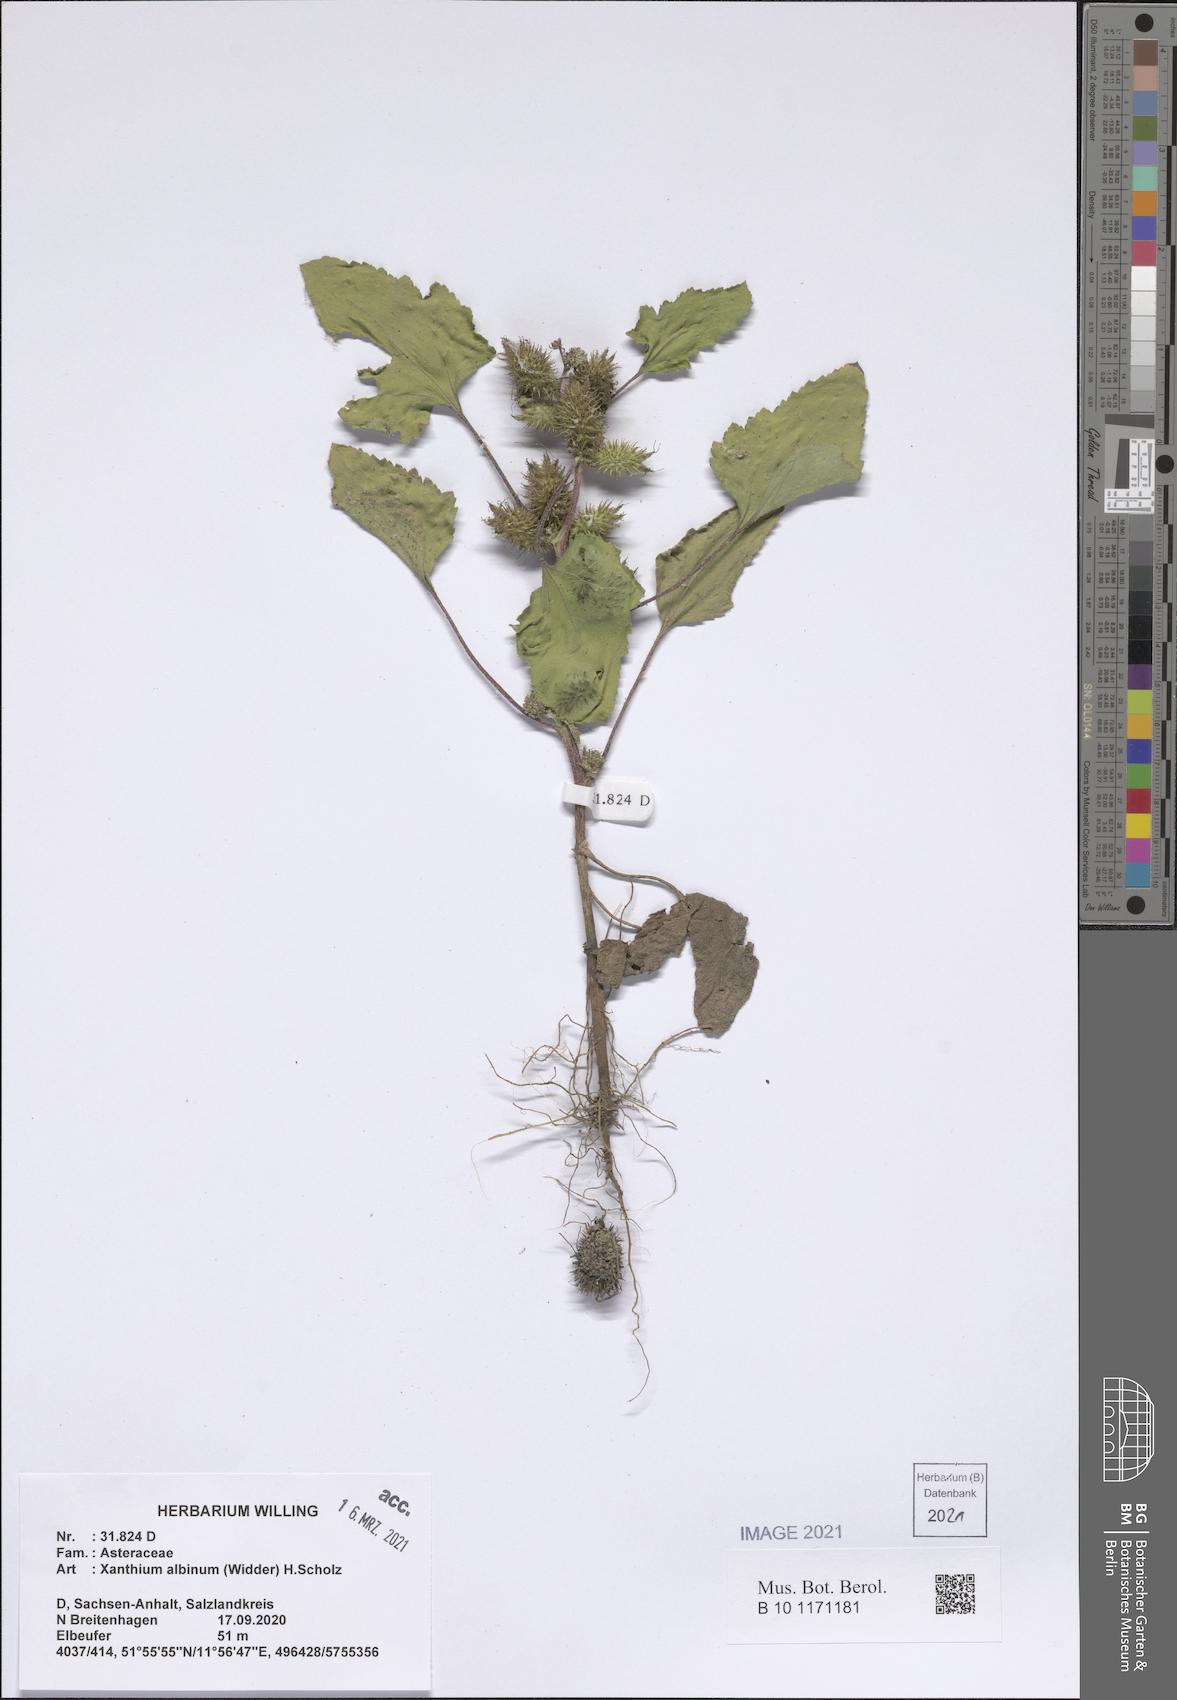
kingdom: Plantae
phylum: Tracheophyta
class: Magnoliopsida
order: Asterales
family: Asteraceae
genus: Xanthium
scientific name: Xanthium orientale
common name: Californian burr
